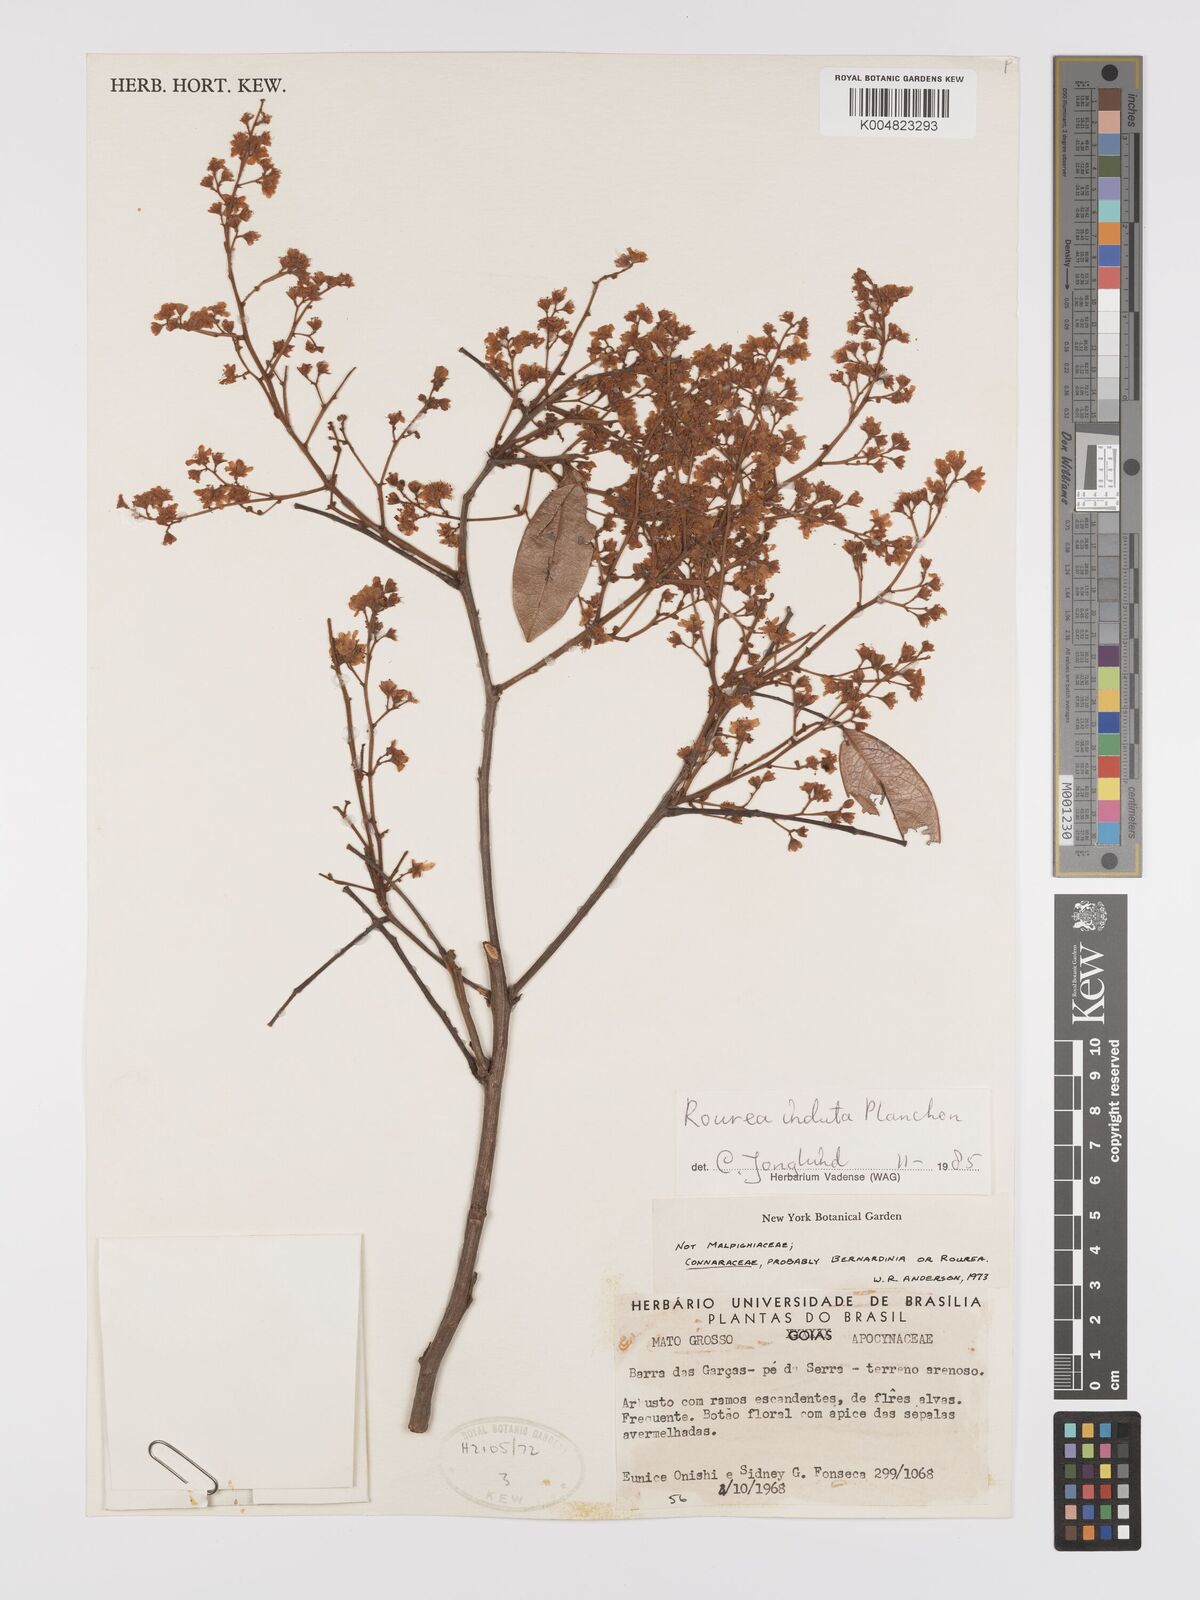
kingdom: Plantae
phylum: Tracheophyta
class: Magnoliopsida
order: Oxalidales
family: Connaraceae
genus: Rourea
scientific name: Rourea induta
